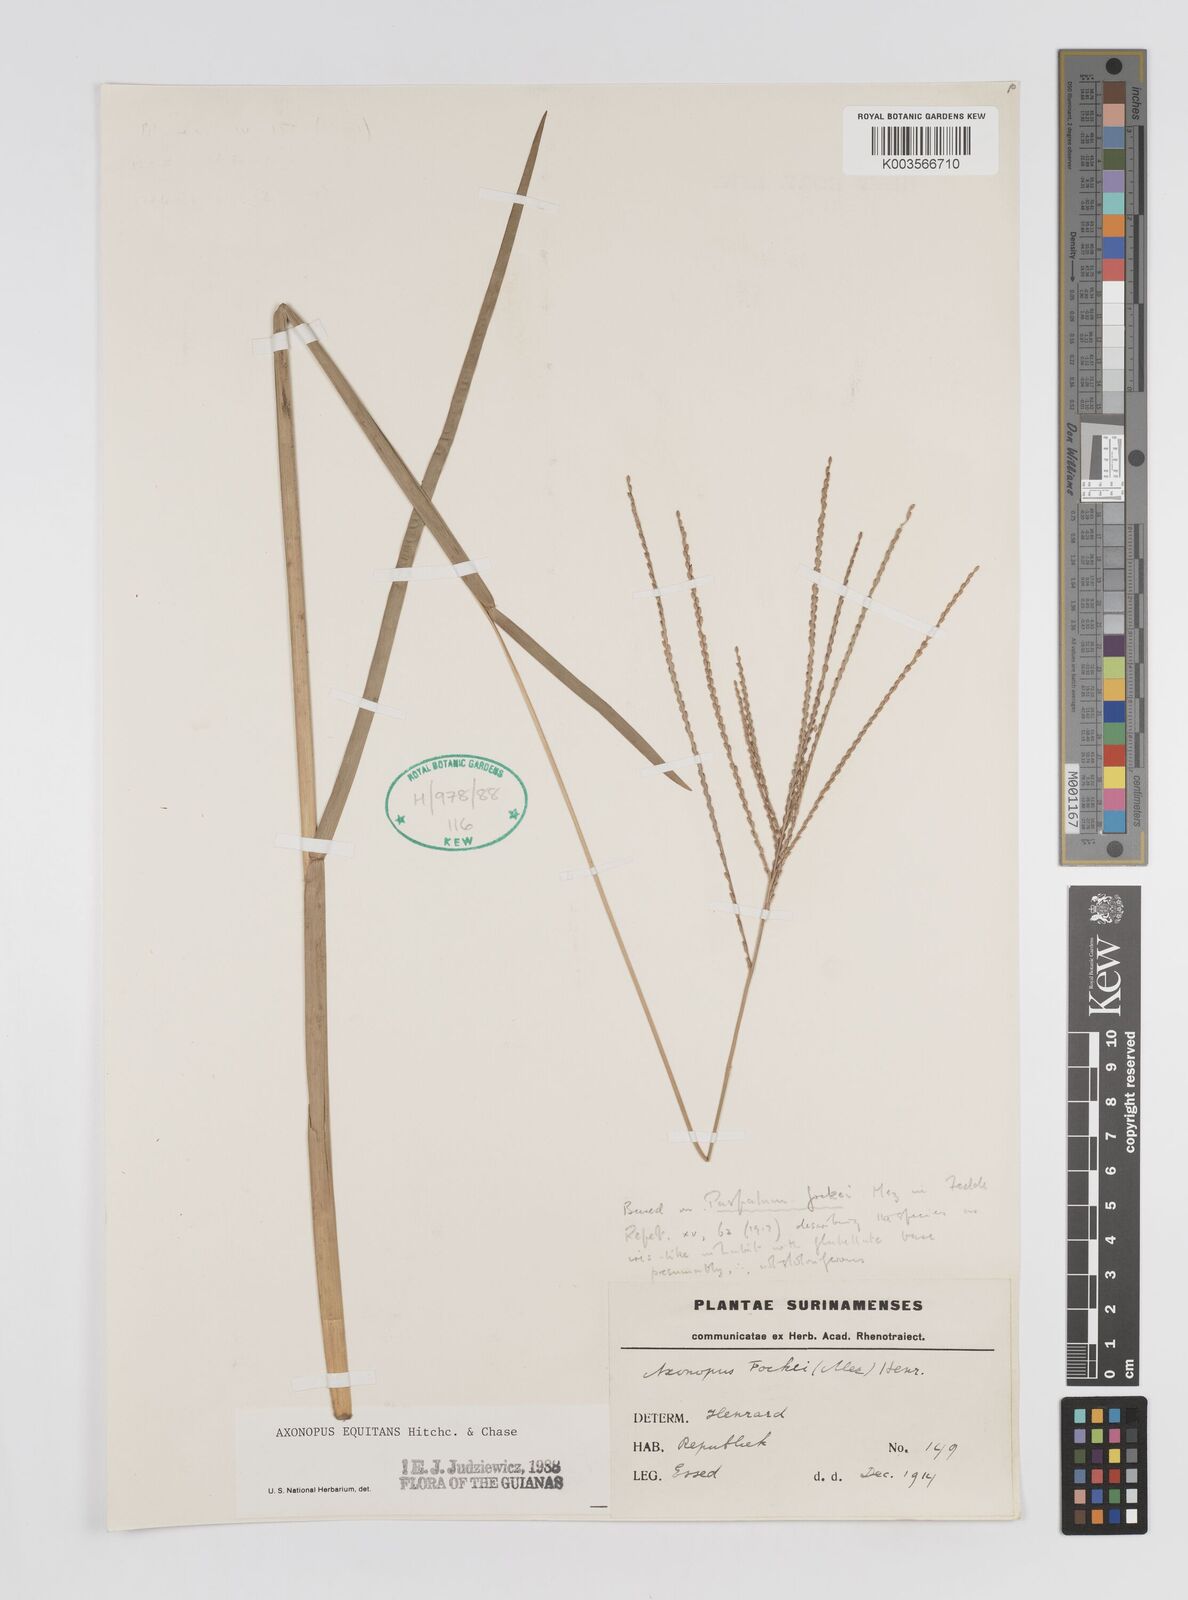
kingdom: Plantae
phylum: Tracheophyta
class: Liliopsida
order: Poales
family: Poaceae
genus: Axonopus
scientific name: Axonopus equitans
